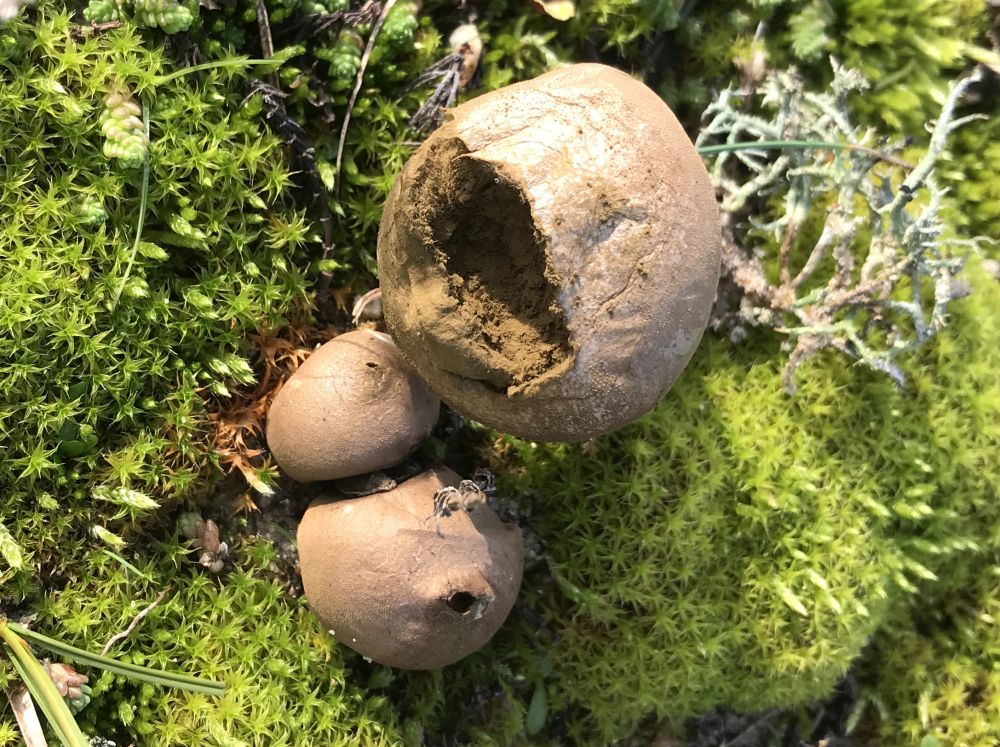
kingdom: Fungi
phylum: Basidiomycota
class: Agaricomycetes
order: Agaricales
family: Lycoperdaceae
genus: Lycoperdon
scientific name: Lycoperdon lividum
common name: mark-støvbold
